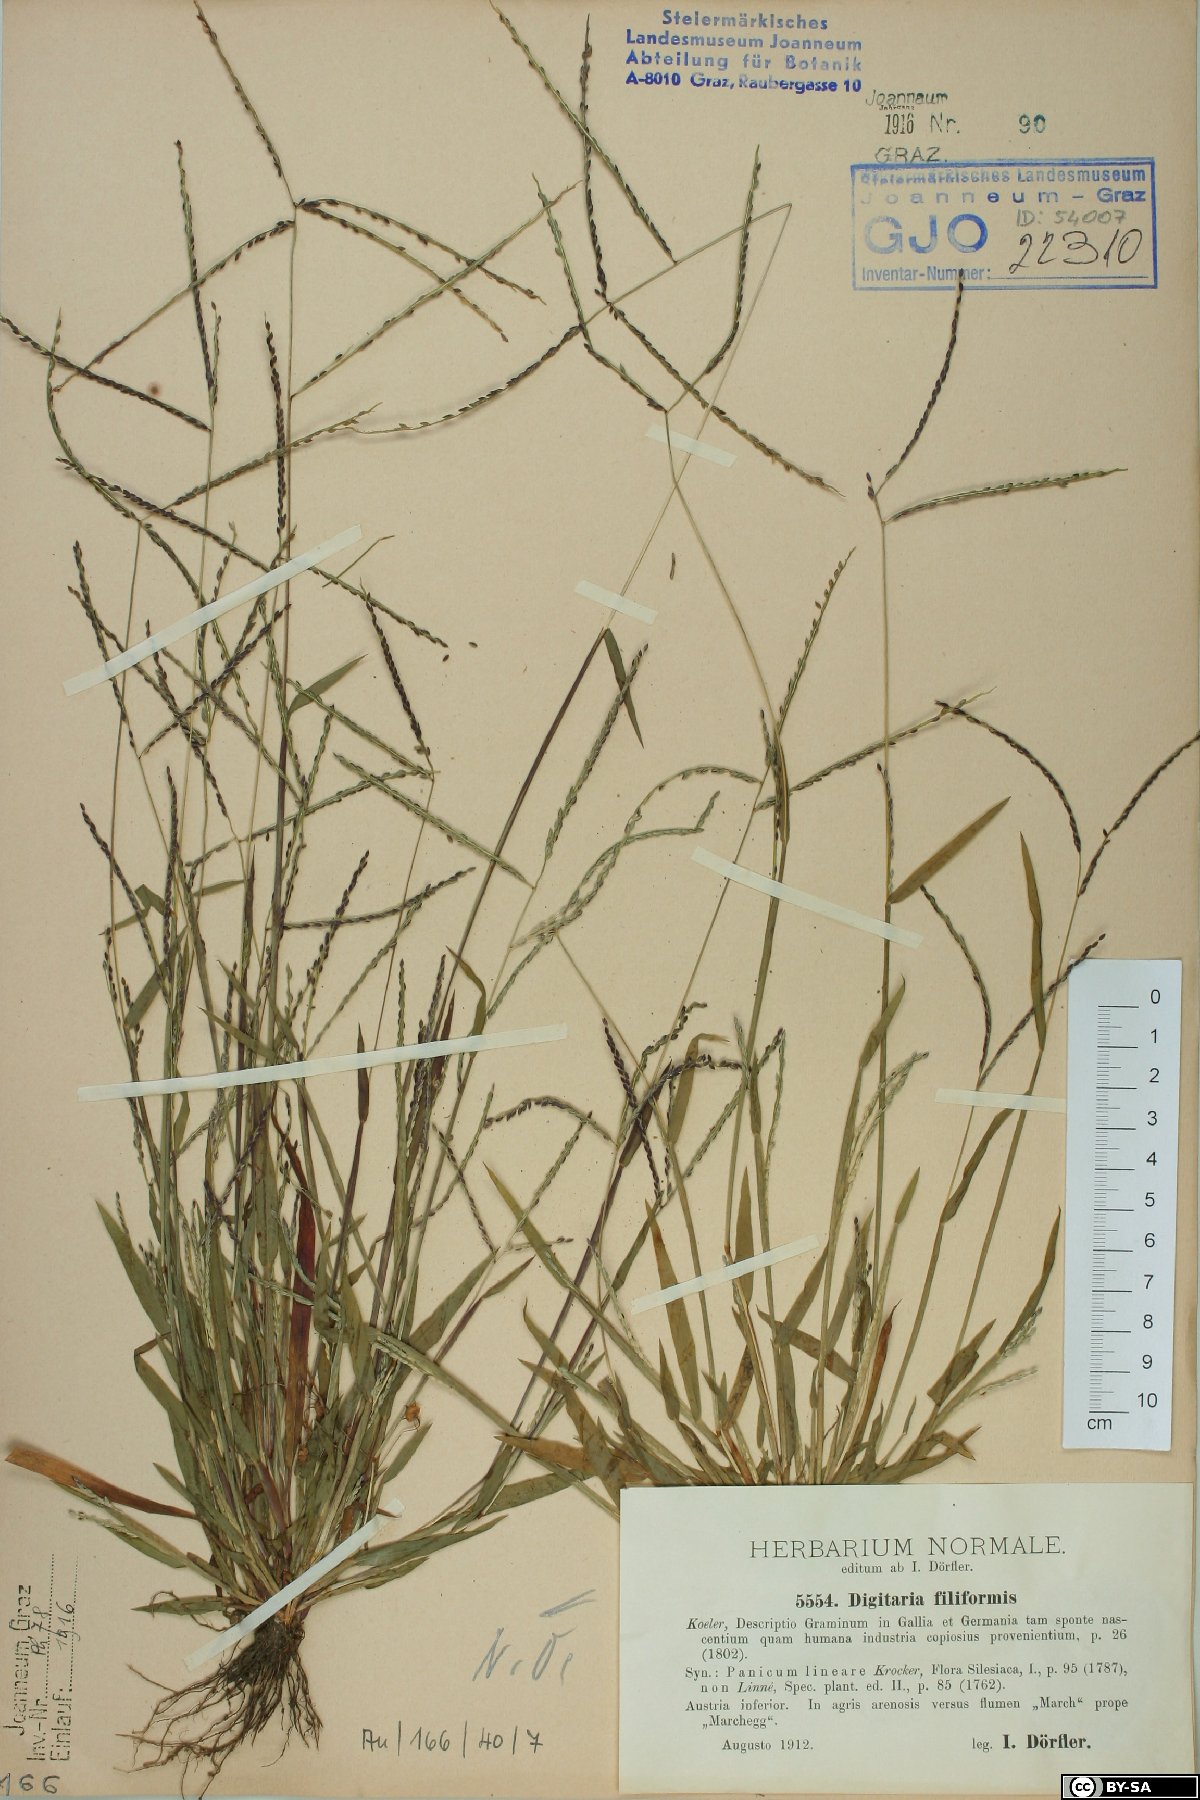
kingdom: Plantae
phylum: Tracheophyta
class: Liliopsida
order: Poales
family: Poaceae
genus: Digitaria
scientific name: Digitaria filiformis
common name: Slender crabgrass
